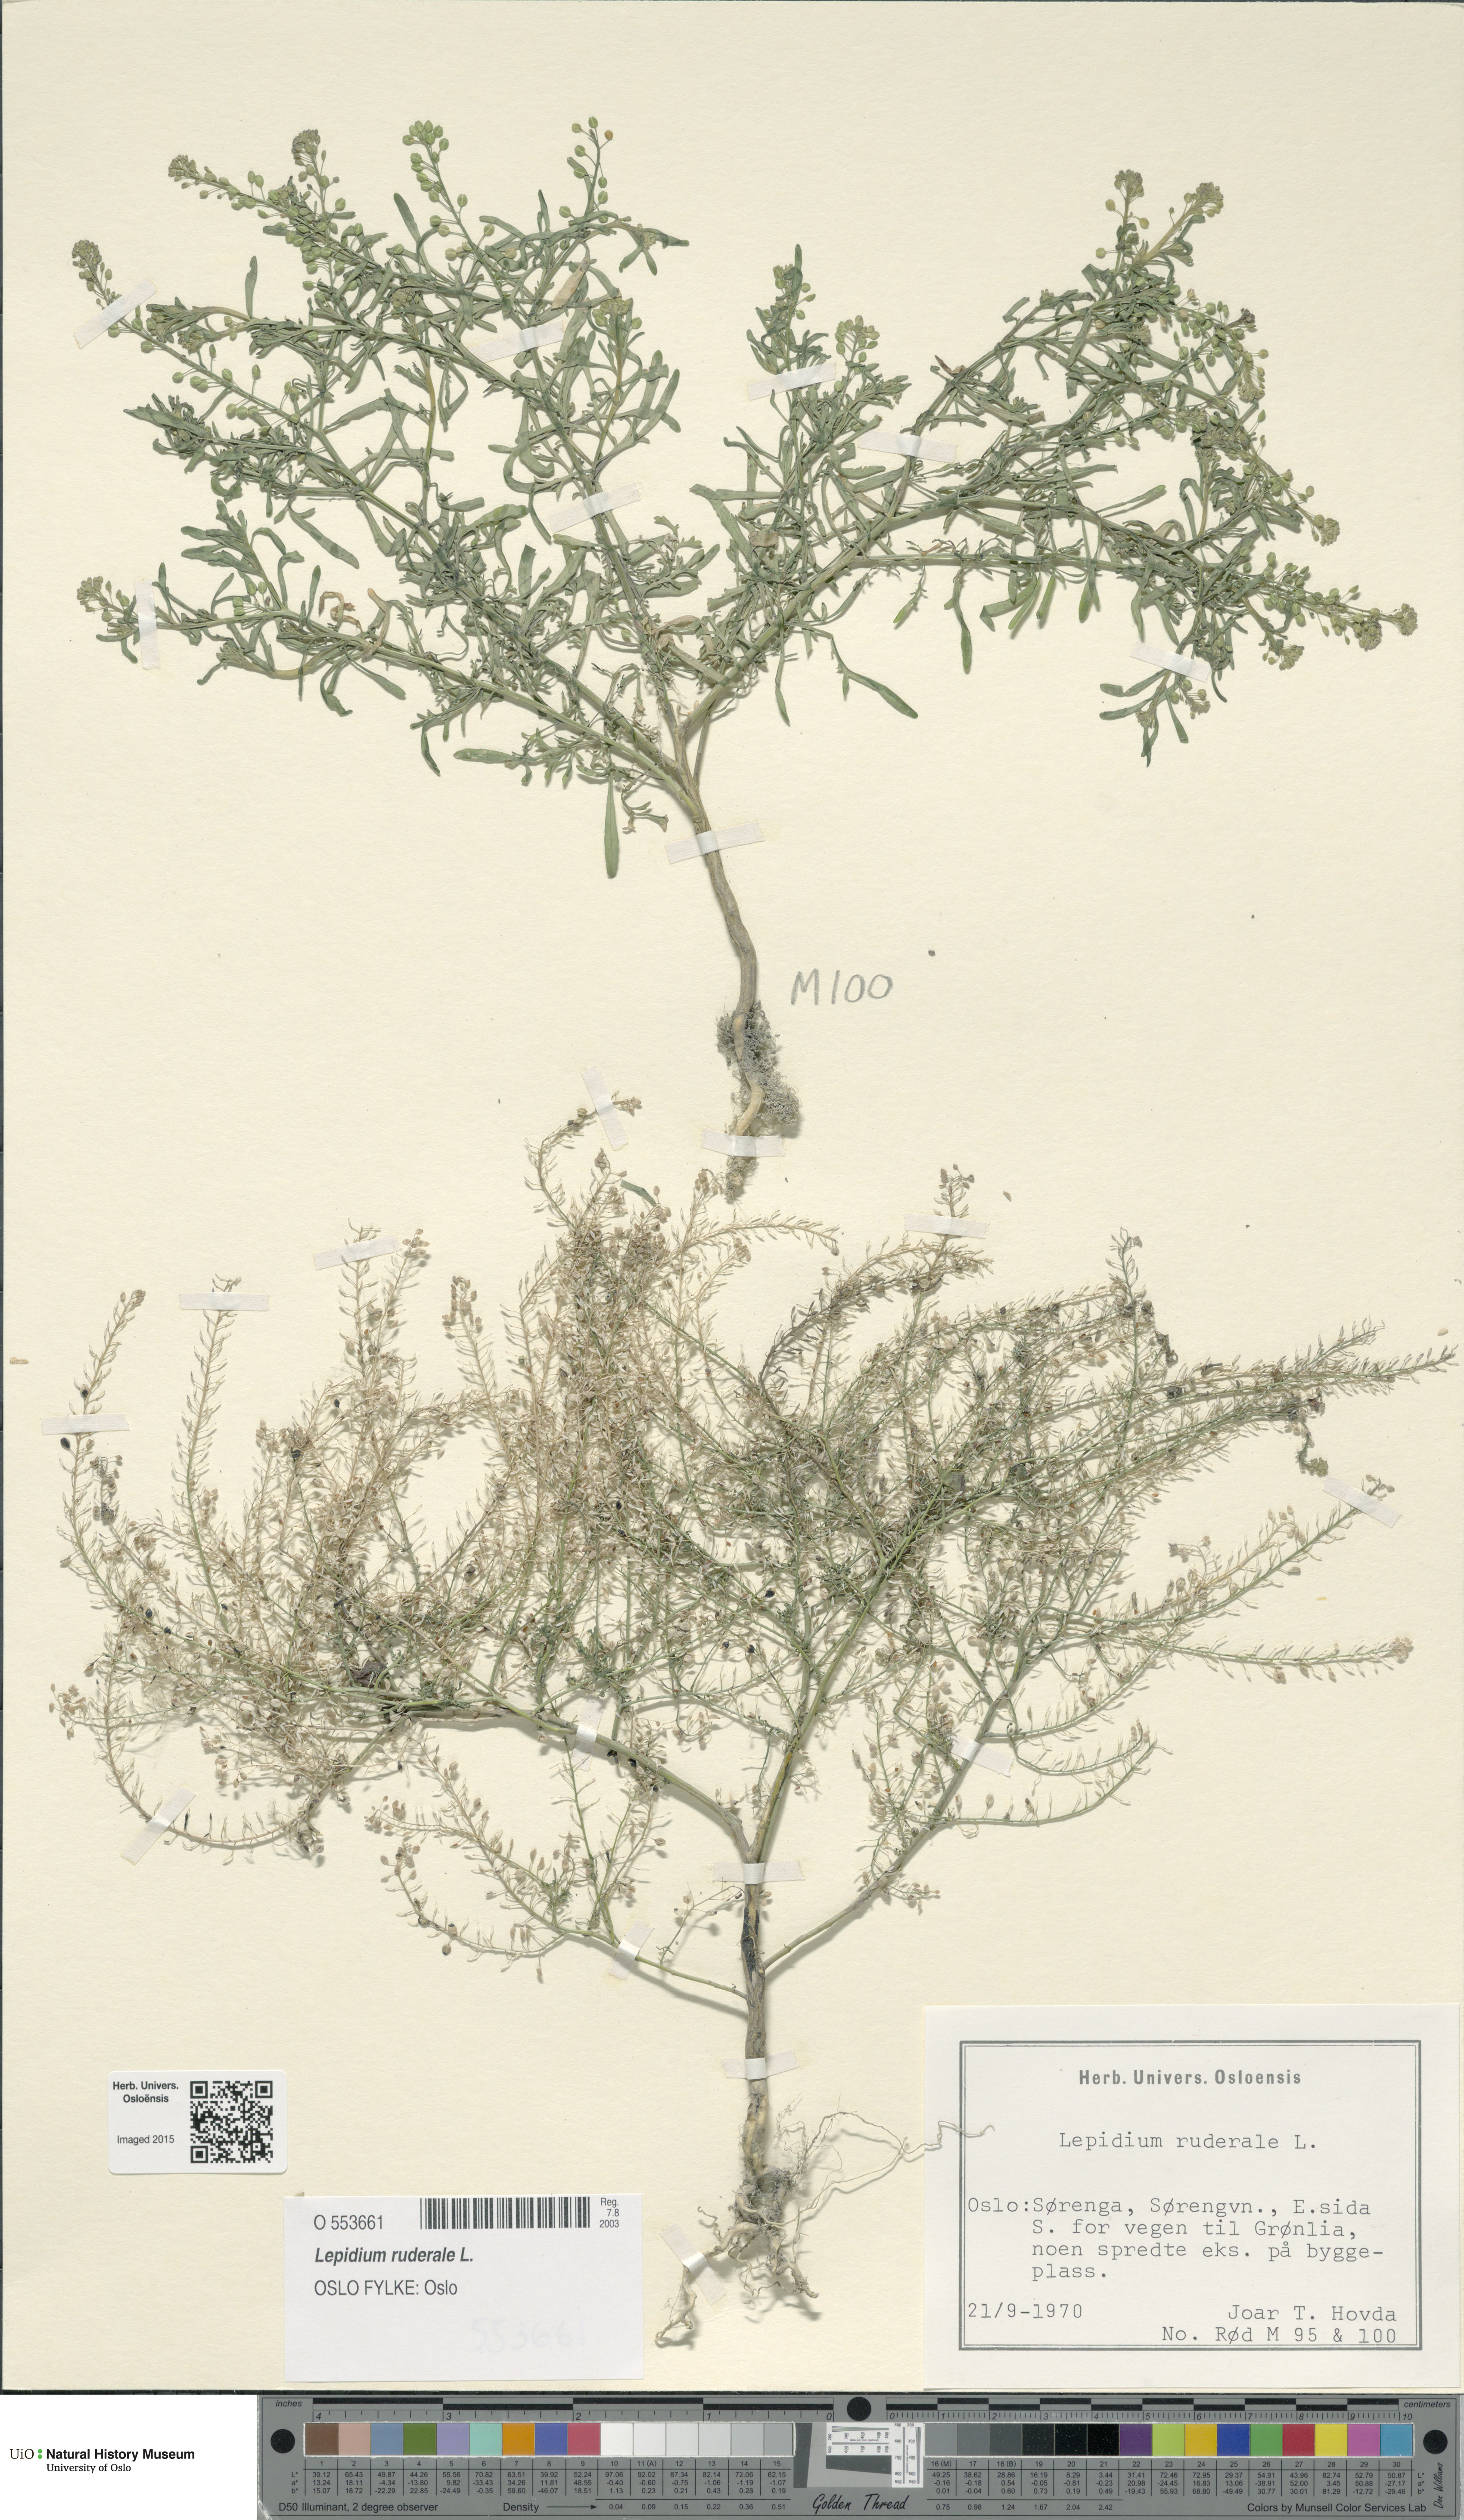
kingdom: Plantae
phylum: Tracheophyta
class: Magnoliopsida
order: Brassicales
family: Brassicaceae
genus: Lepidium
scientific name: Lepidium ruderale
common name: Narrow-leaved pepperwort
